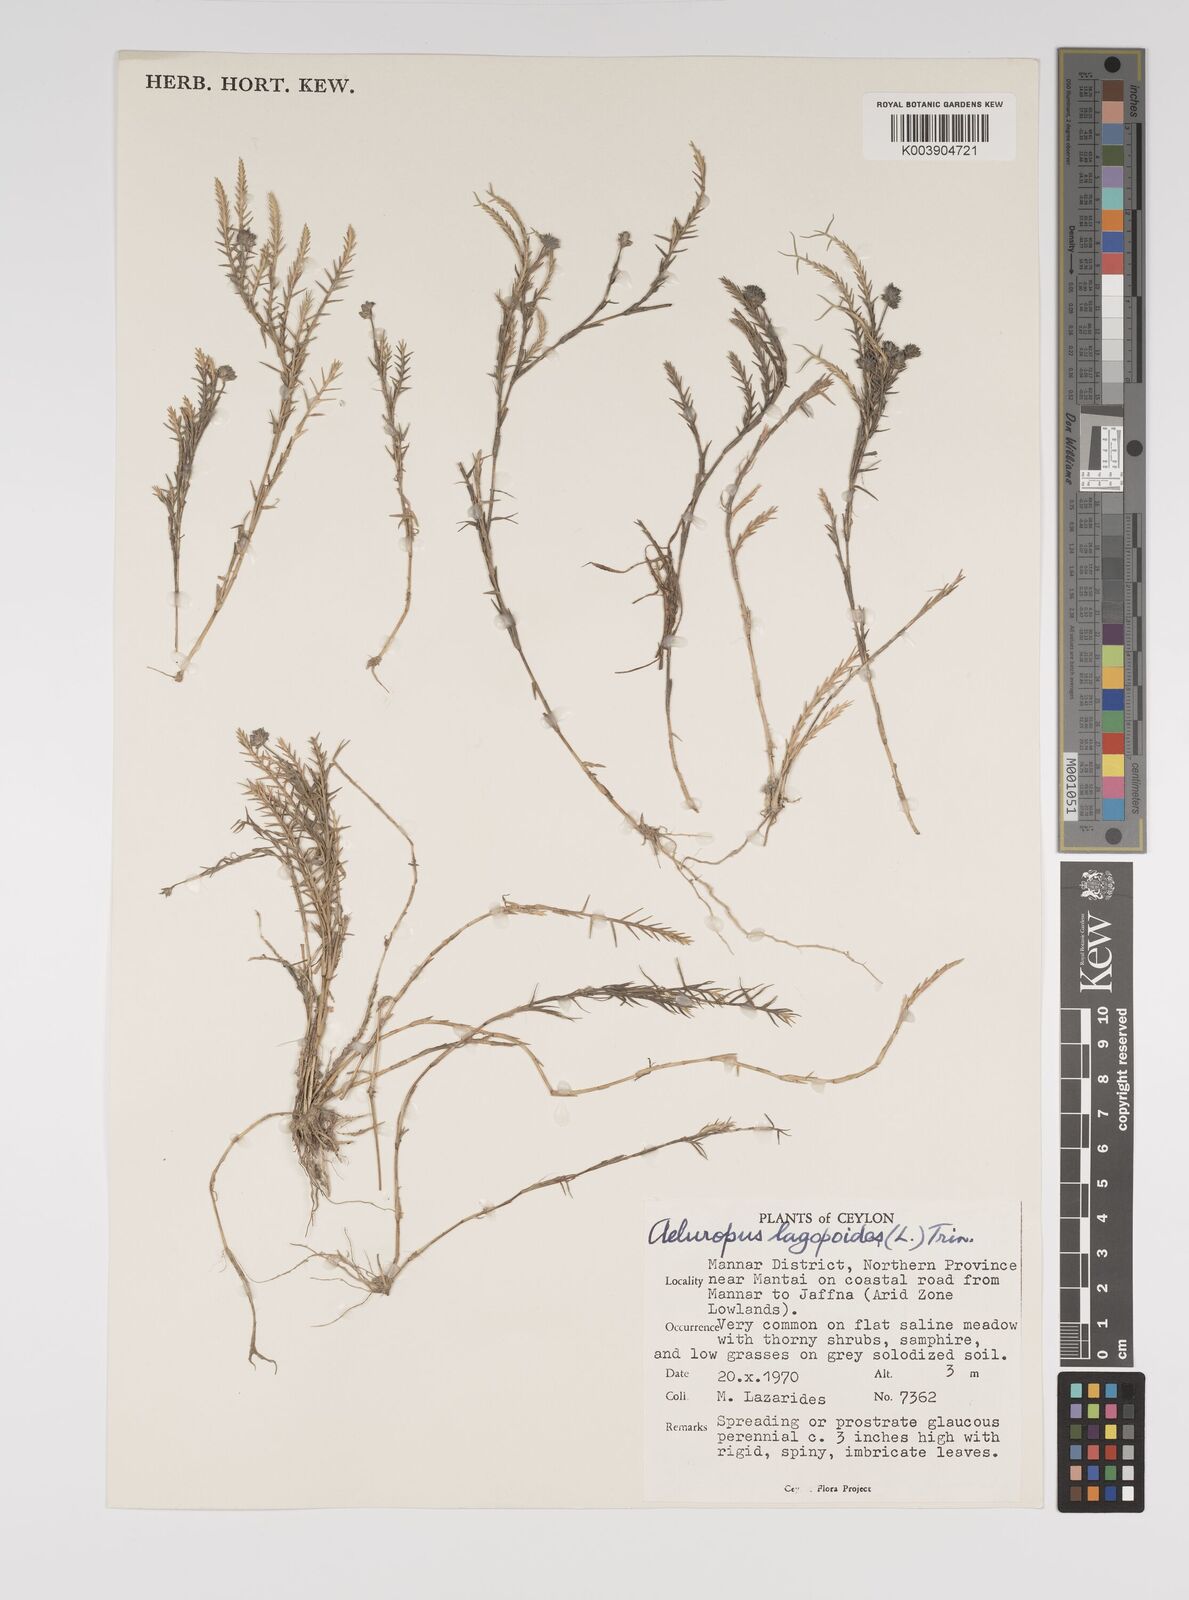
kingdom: Plantae
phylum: Tracheophyta
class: Liliopsida
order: Poales
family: Poaceae
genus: Aeluropus
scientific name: Aeluropus lagopoides
